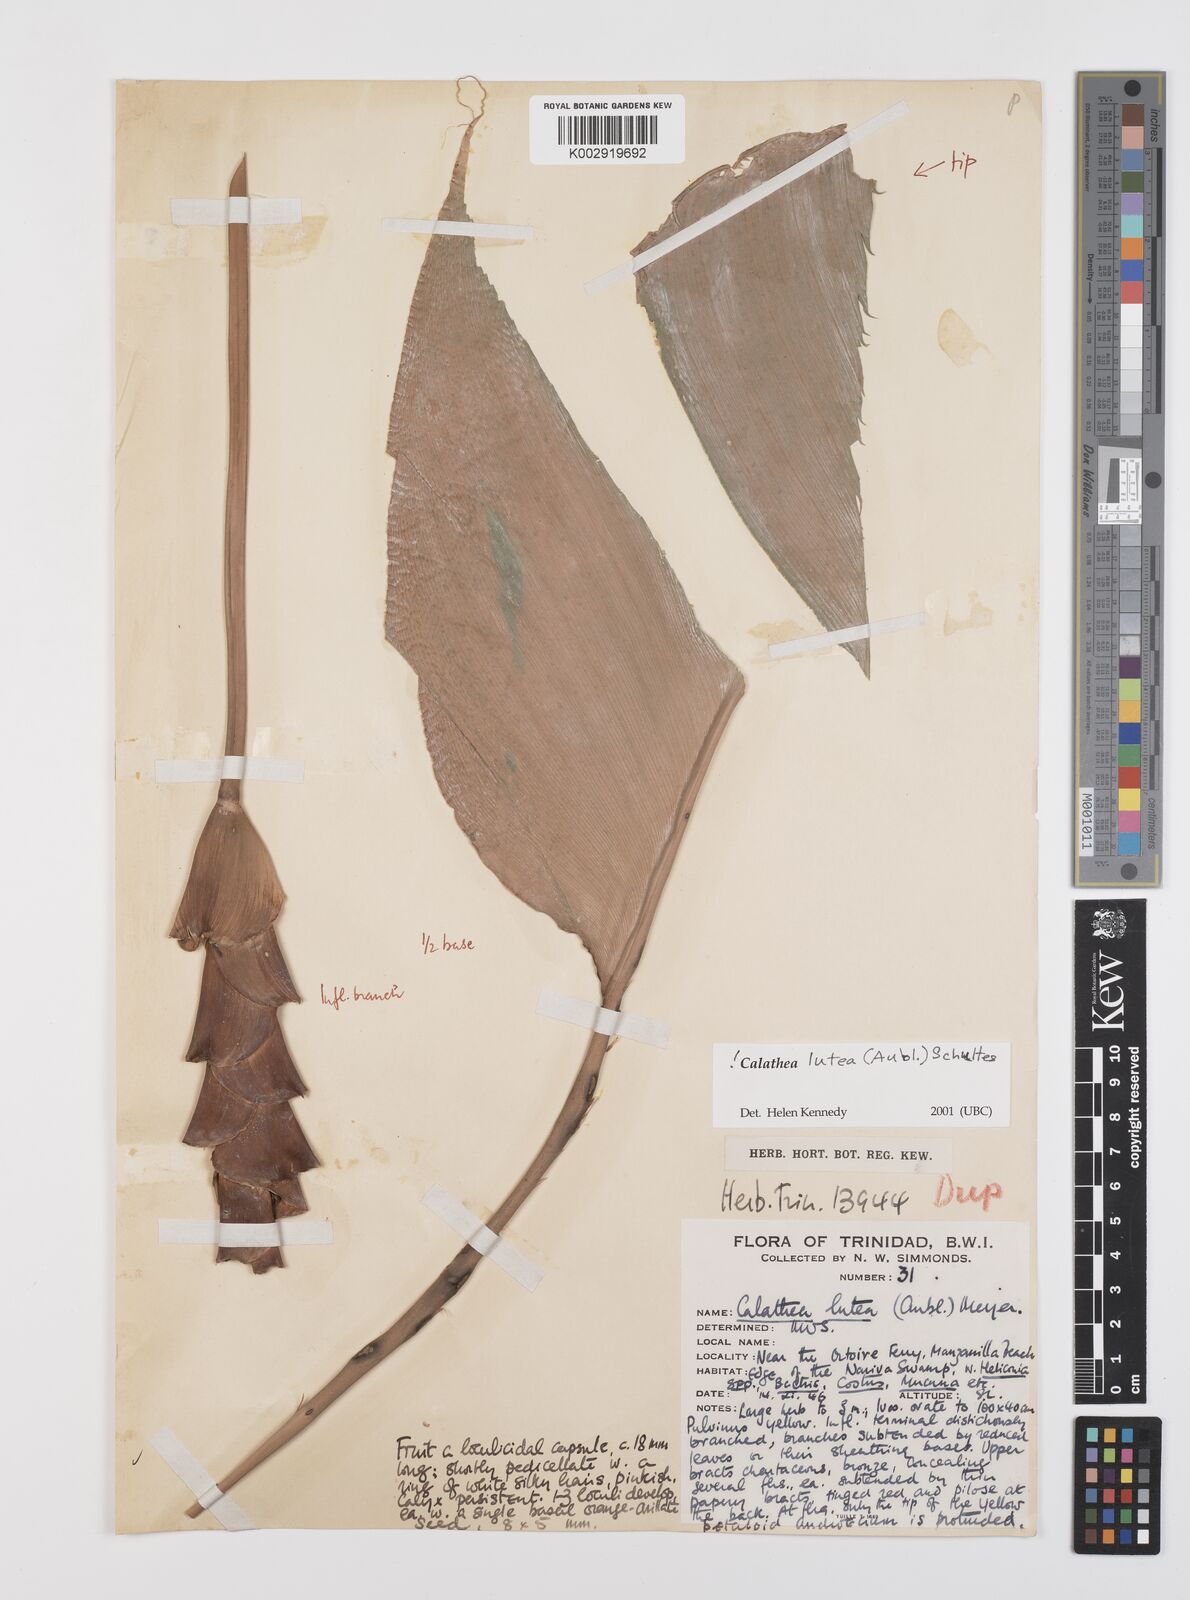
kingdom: Plantae
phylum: Tracheophyta
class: Liliopsida
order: Zingiberales
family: Marantaceae
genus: Calathea
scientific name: Calathea lutea
